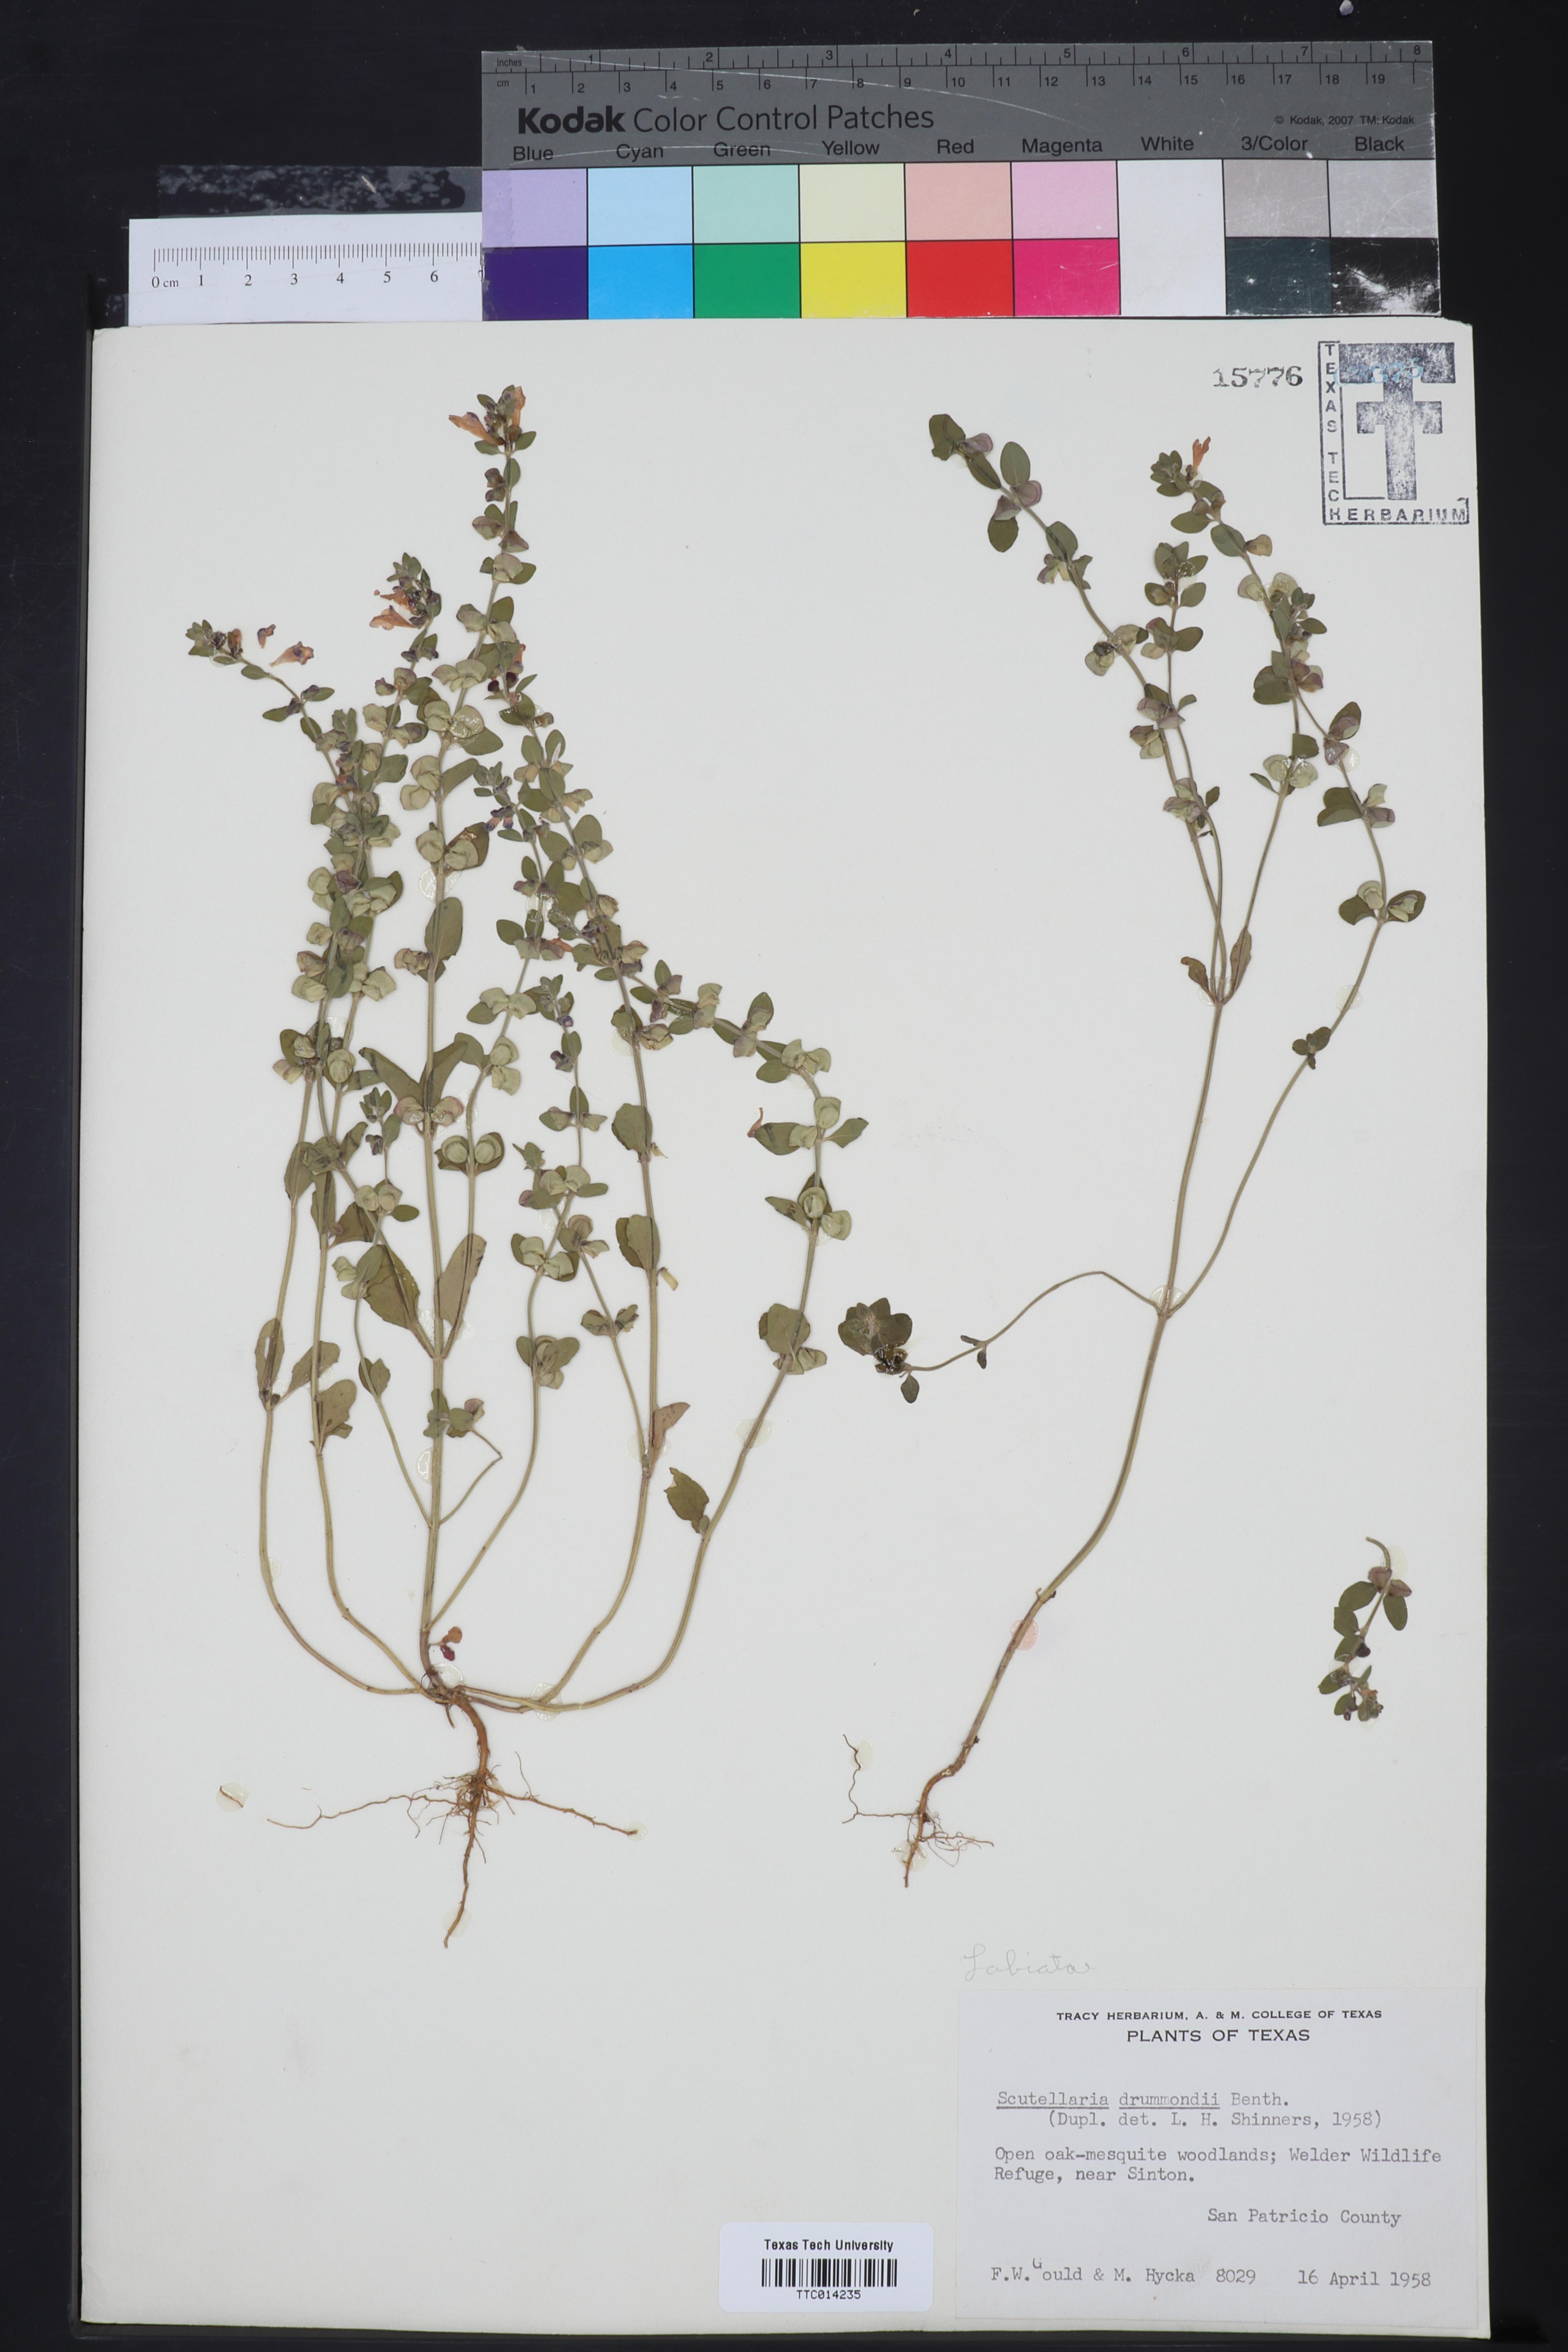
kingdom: Plantae
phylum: Tracheophyta
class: Magnoliopsida
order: Lamiales
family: Lamiaceae
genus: Scutellaria
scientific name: Scutellaria drummondii
